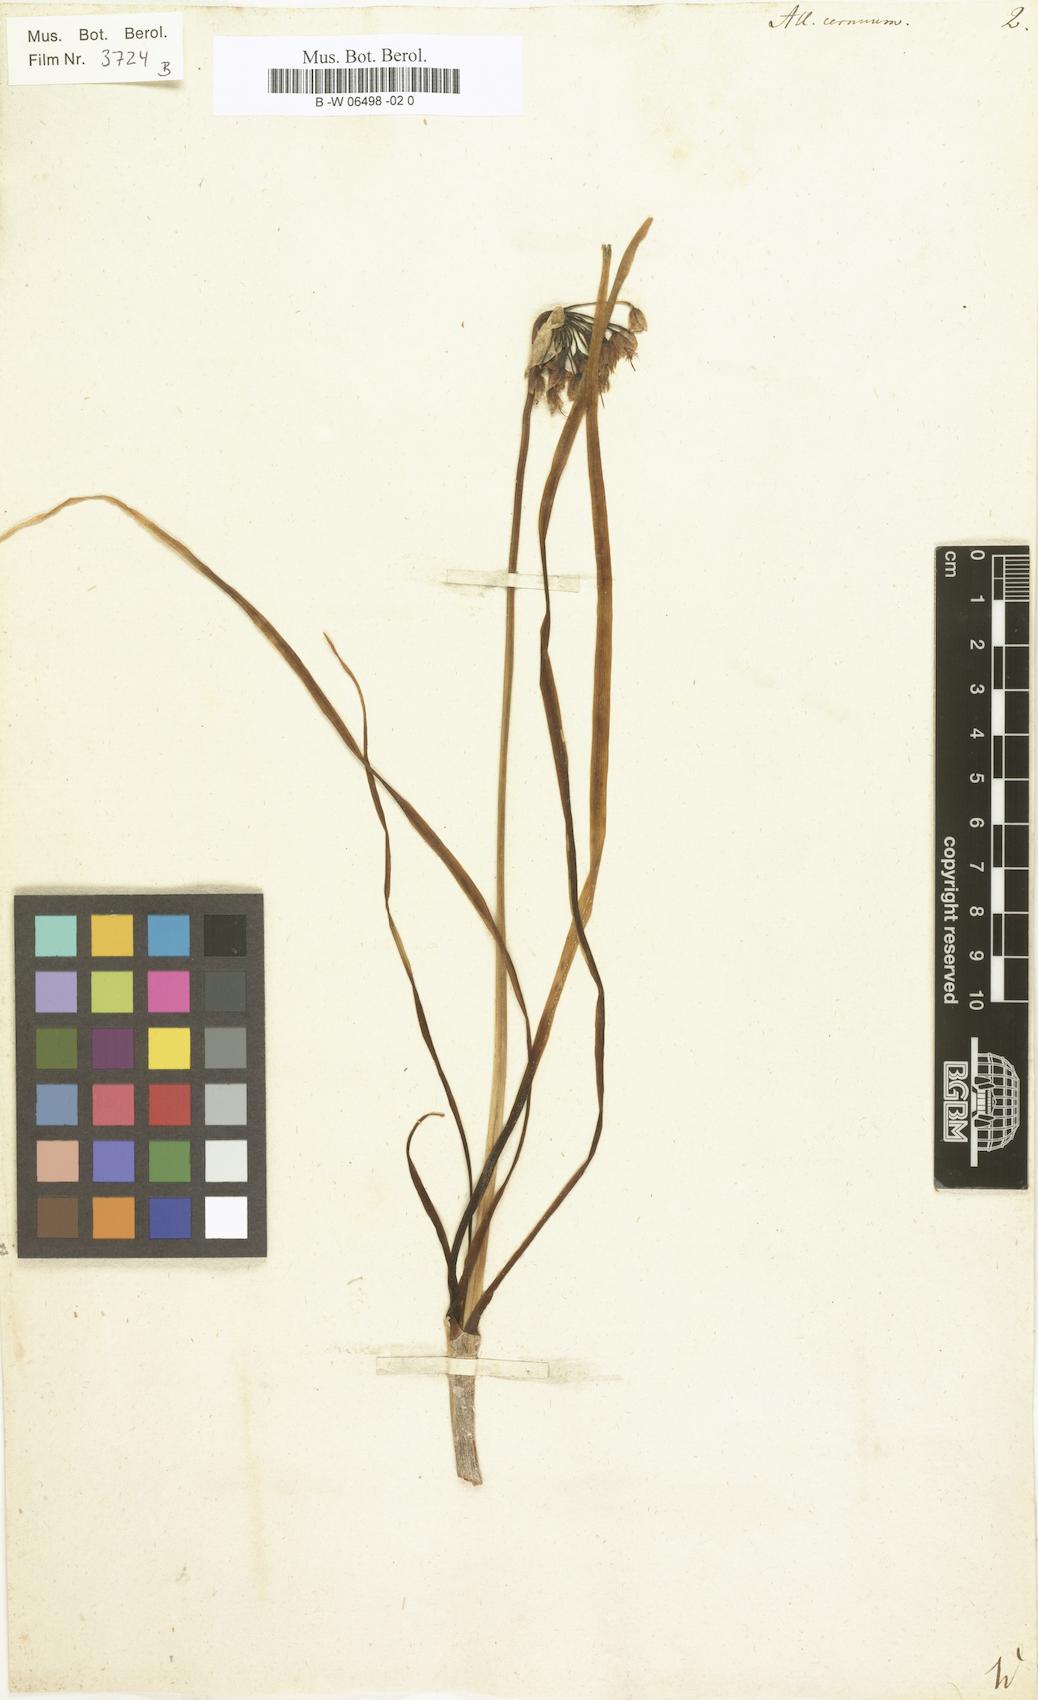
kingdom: Plantae
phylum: Tracheophyta
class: Liliopsida
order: Asparagales
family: Amaryllidaceae
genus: Allium
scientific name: Allium cernuum
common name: Nodding onion
